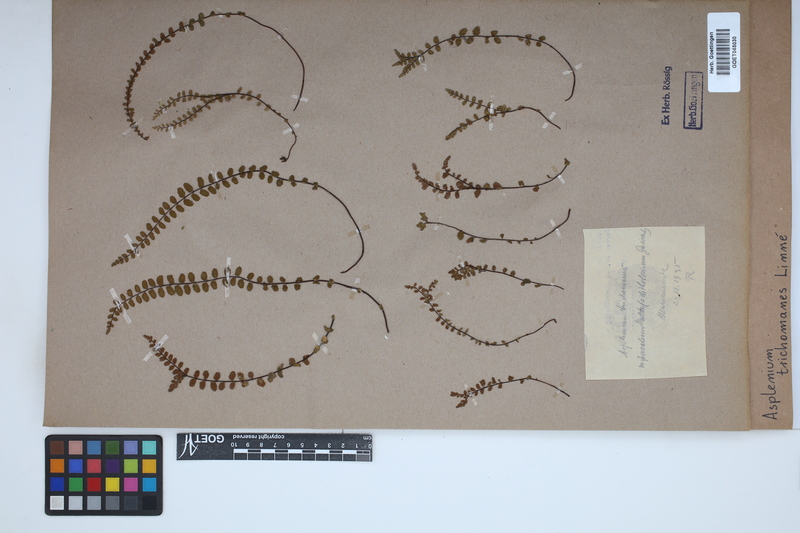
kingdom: Plantae
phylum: Tracheophyta
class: Polypodiopsida
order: Polypodiales
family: Aspleniaceae
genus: Asplenium
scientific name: Asplenium trichomanes
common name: Maidenhair spleenwort
